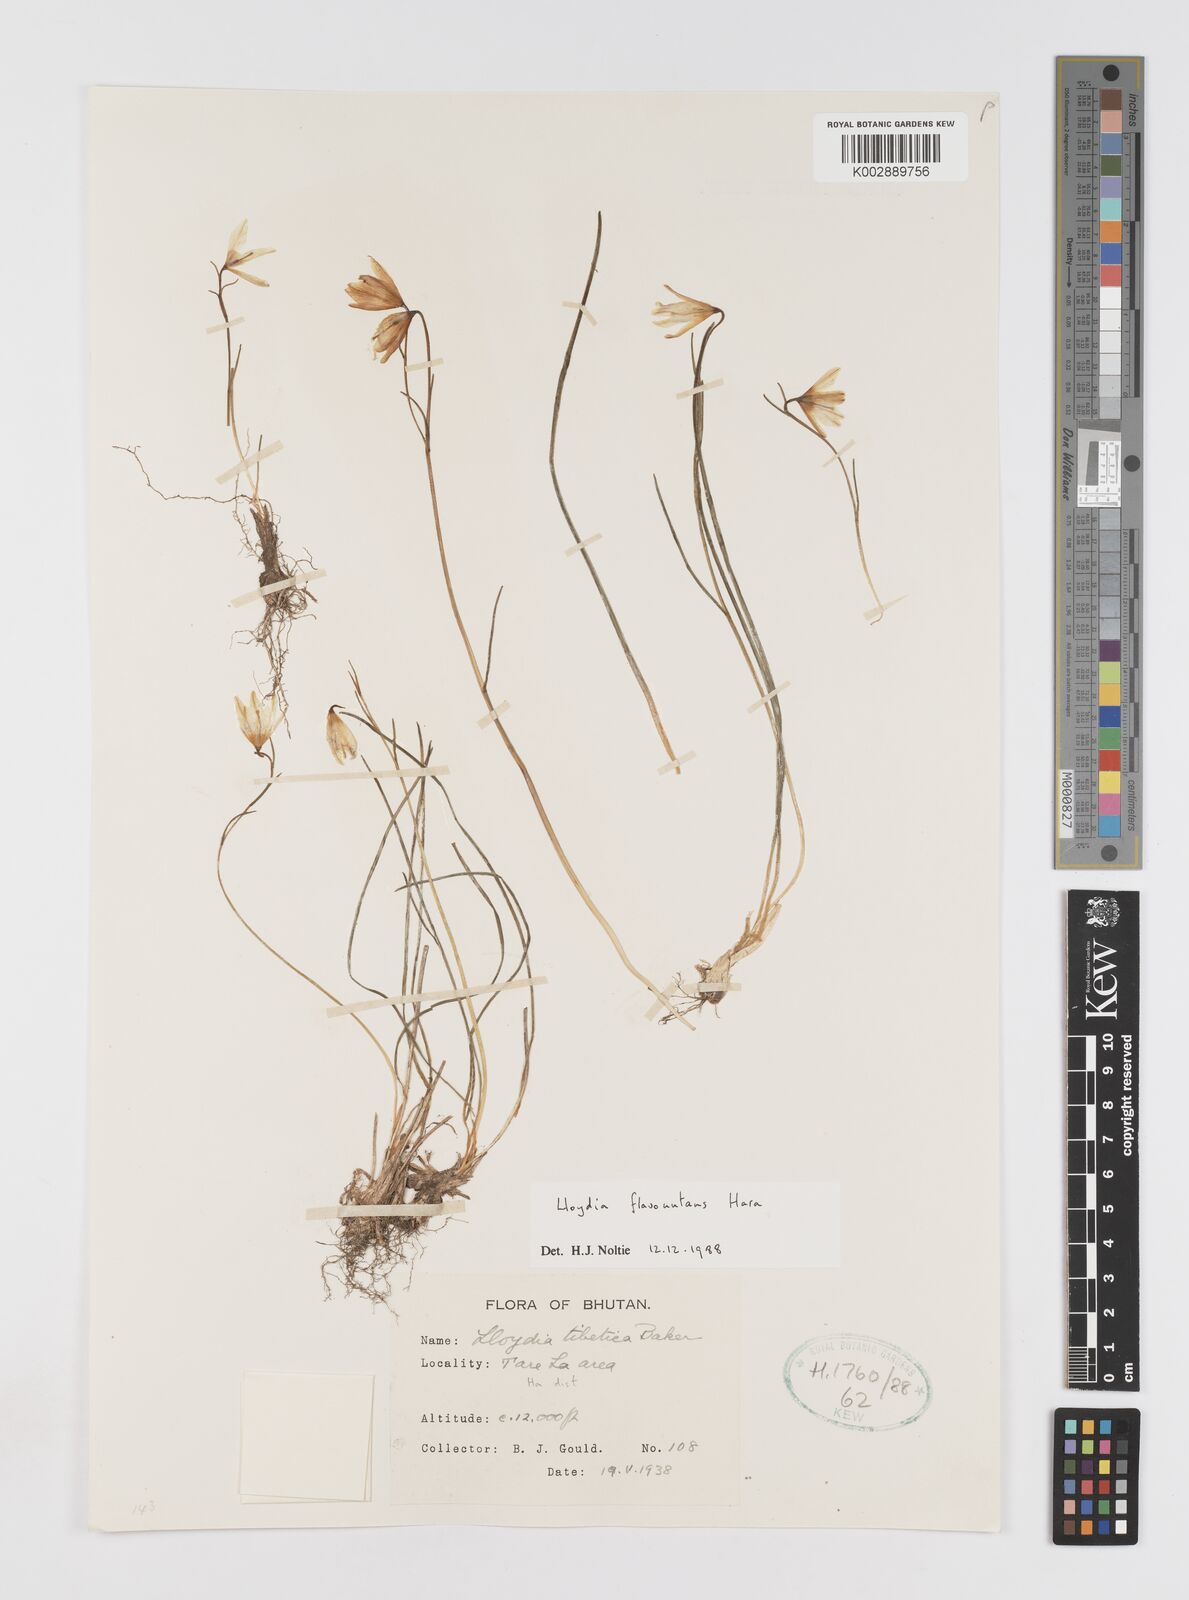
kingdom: Plantae
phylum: Tracheophyta
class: Liliopsida
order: Liliales
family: Liliaceae
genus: Gagea
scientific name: Gagea flavonutans
